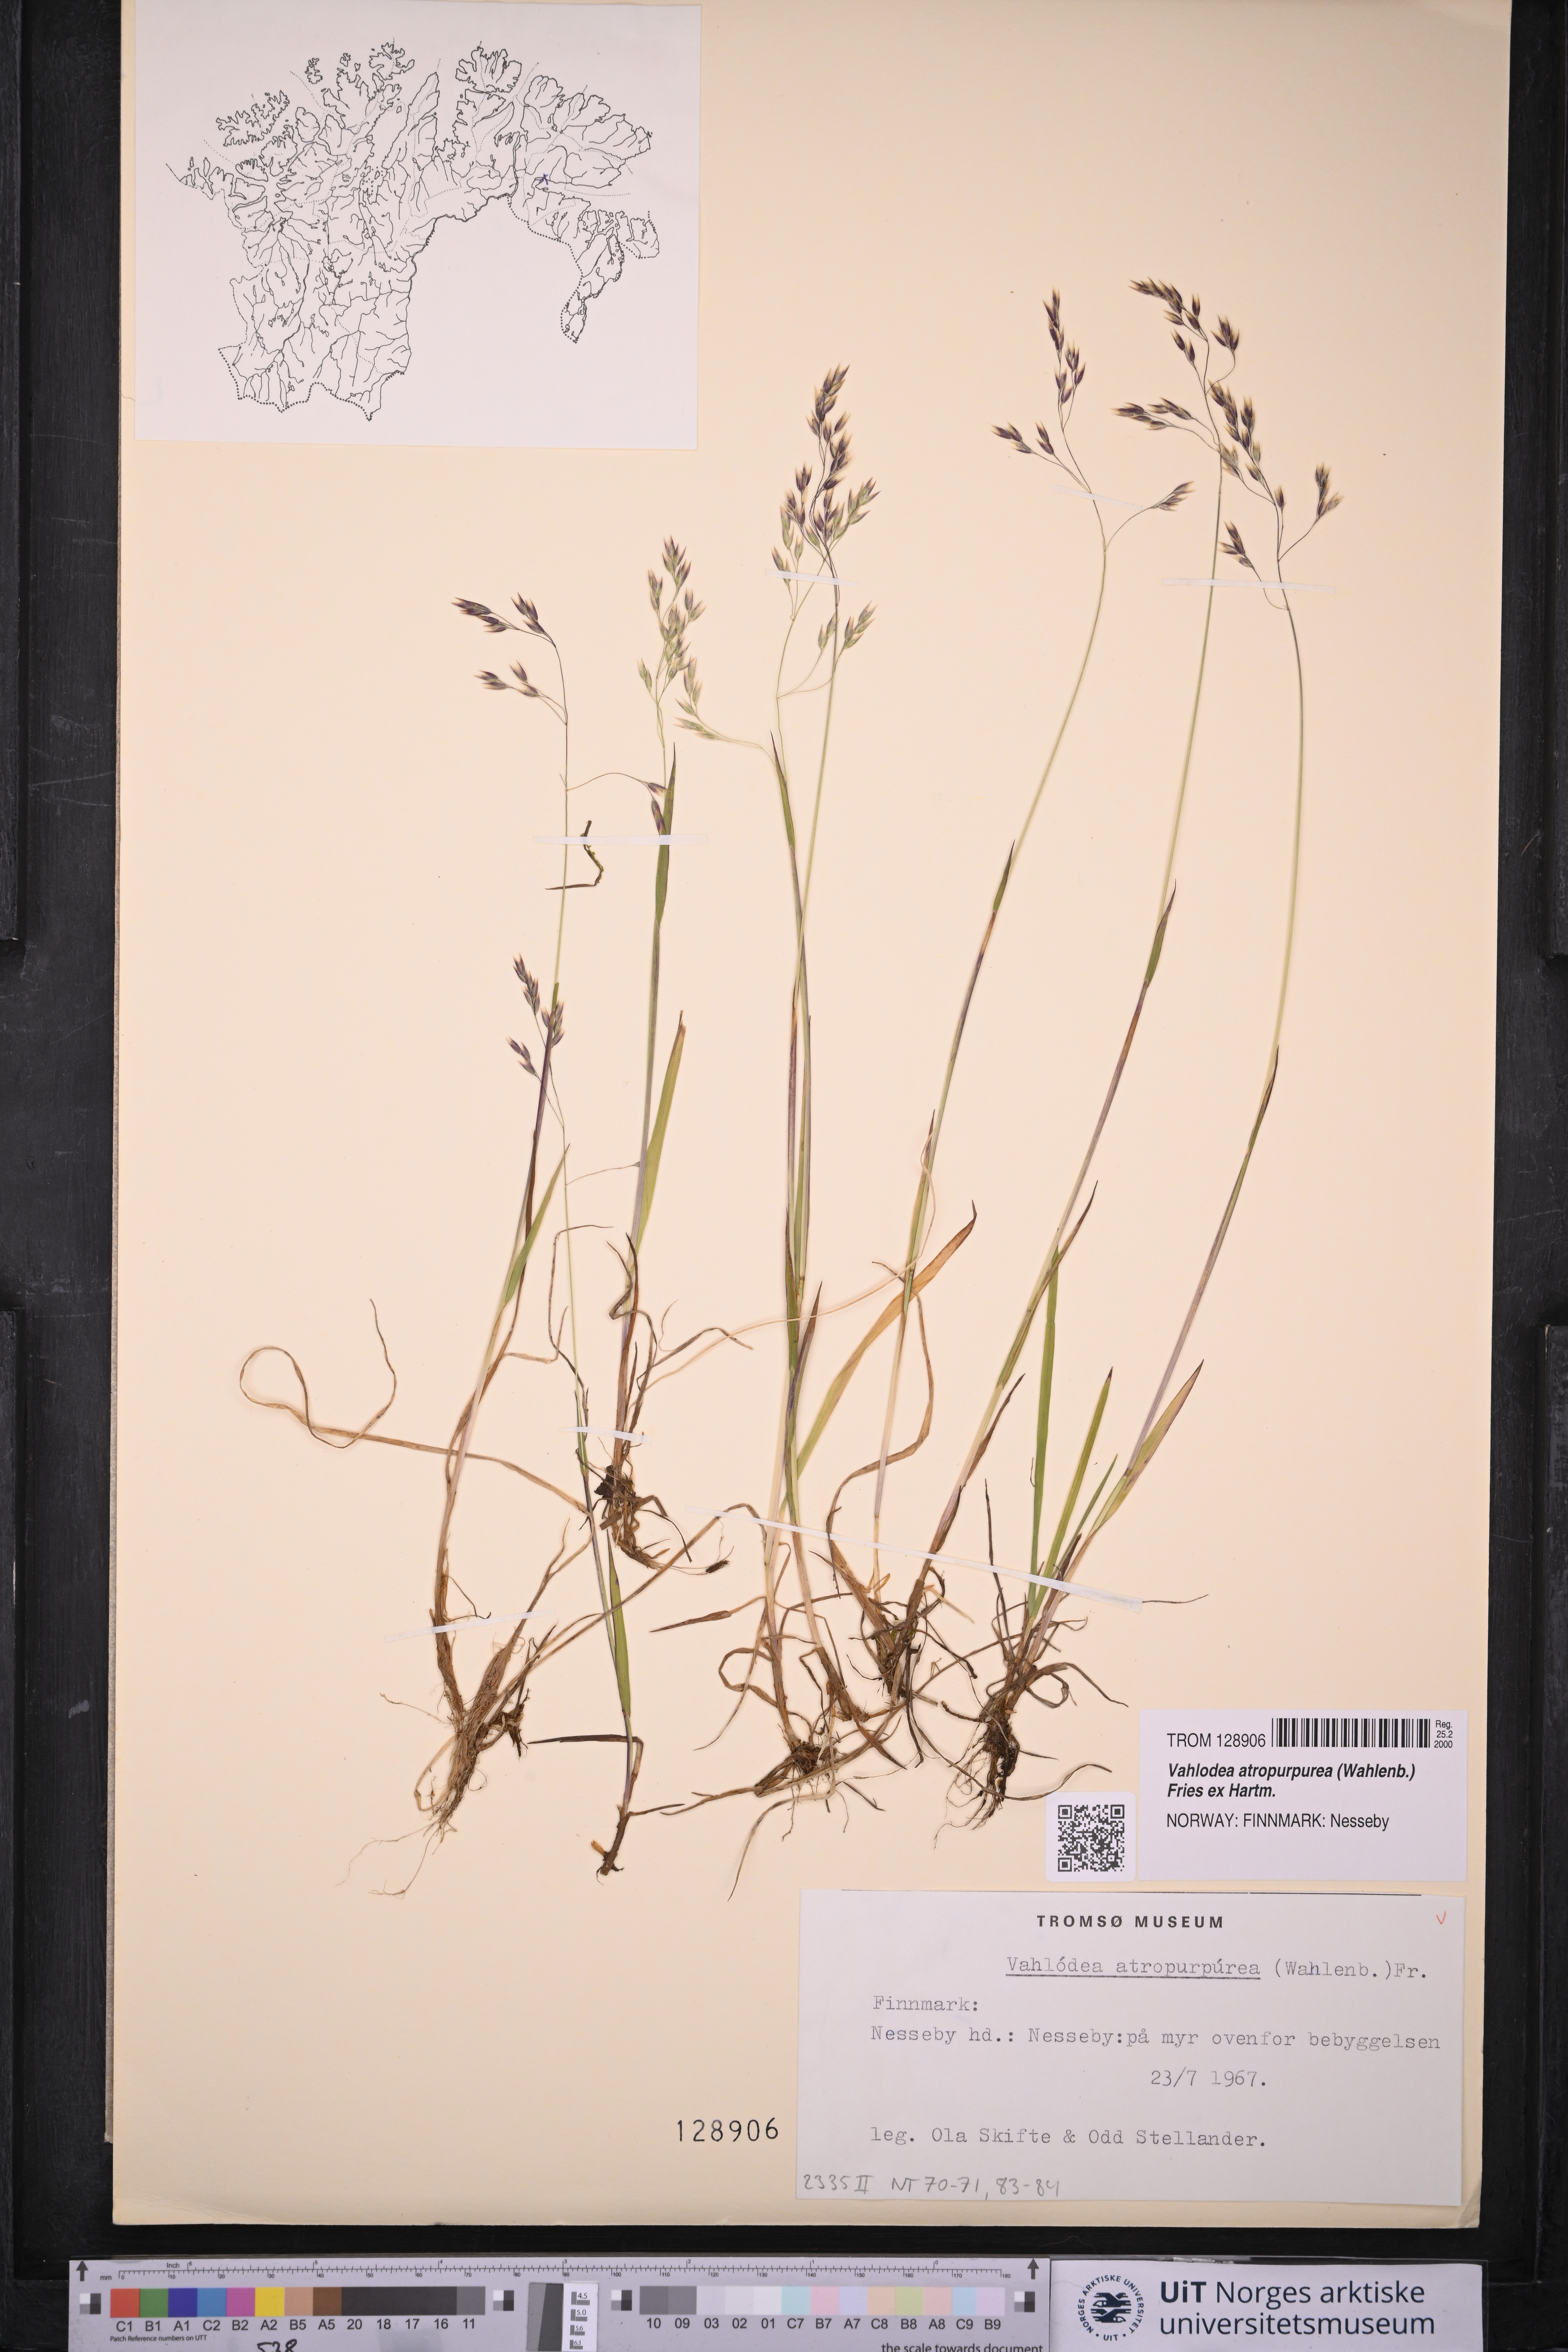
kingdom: Plantae
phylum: Tracheophyta
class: Liliopsida
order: Poales
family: Poaceae
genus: Vahlodea
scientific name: Vahlodea atropurpurea
